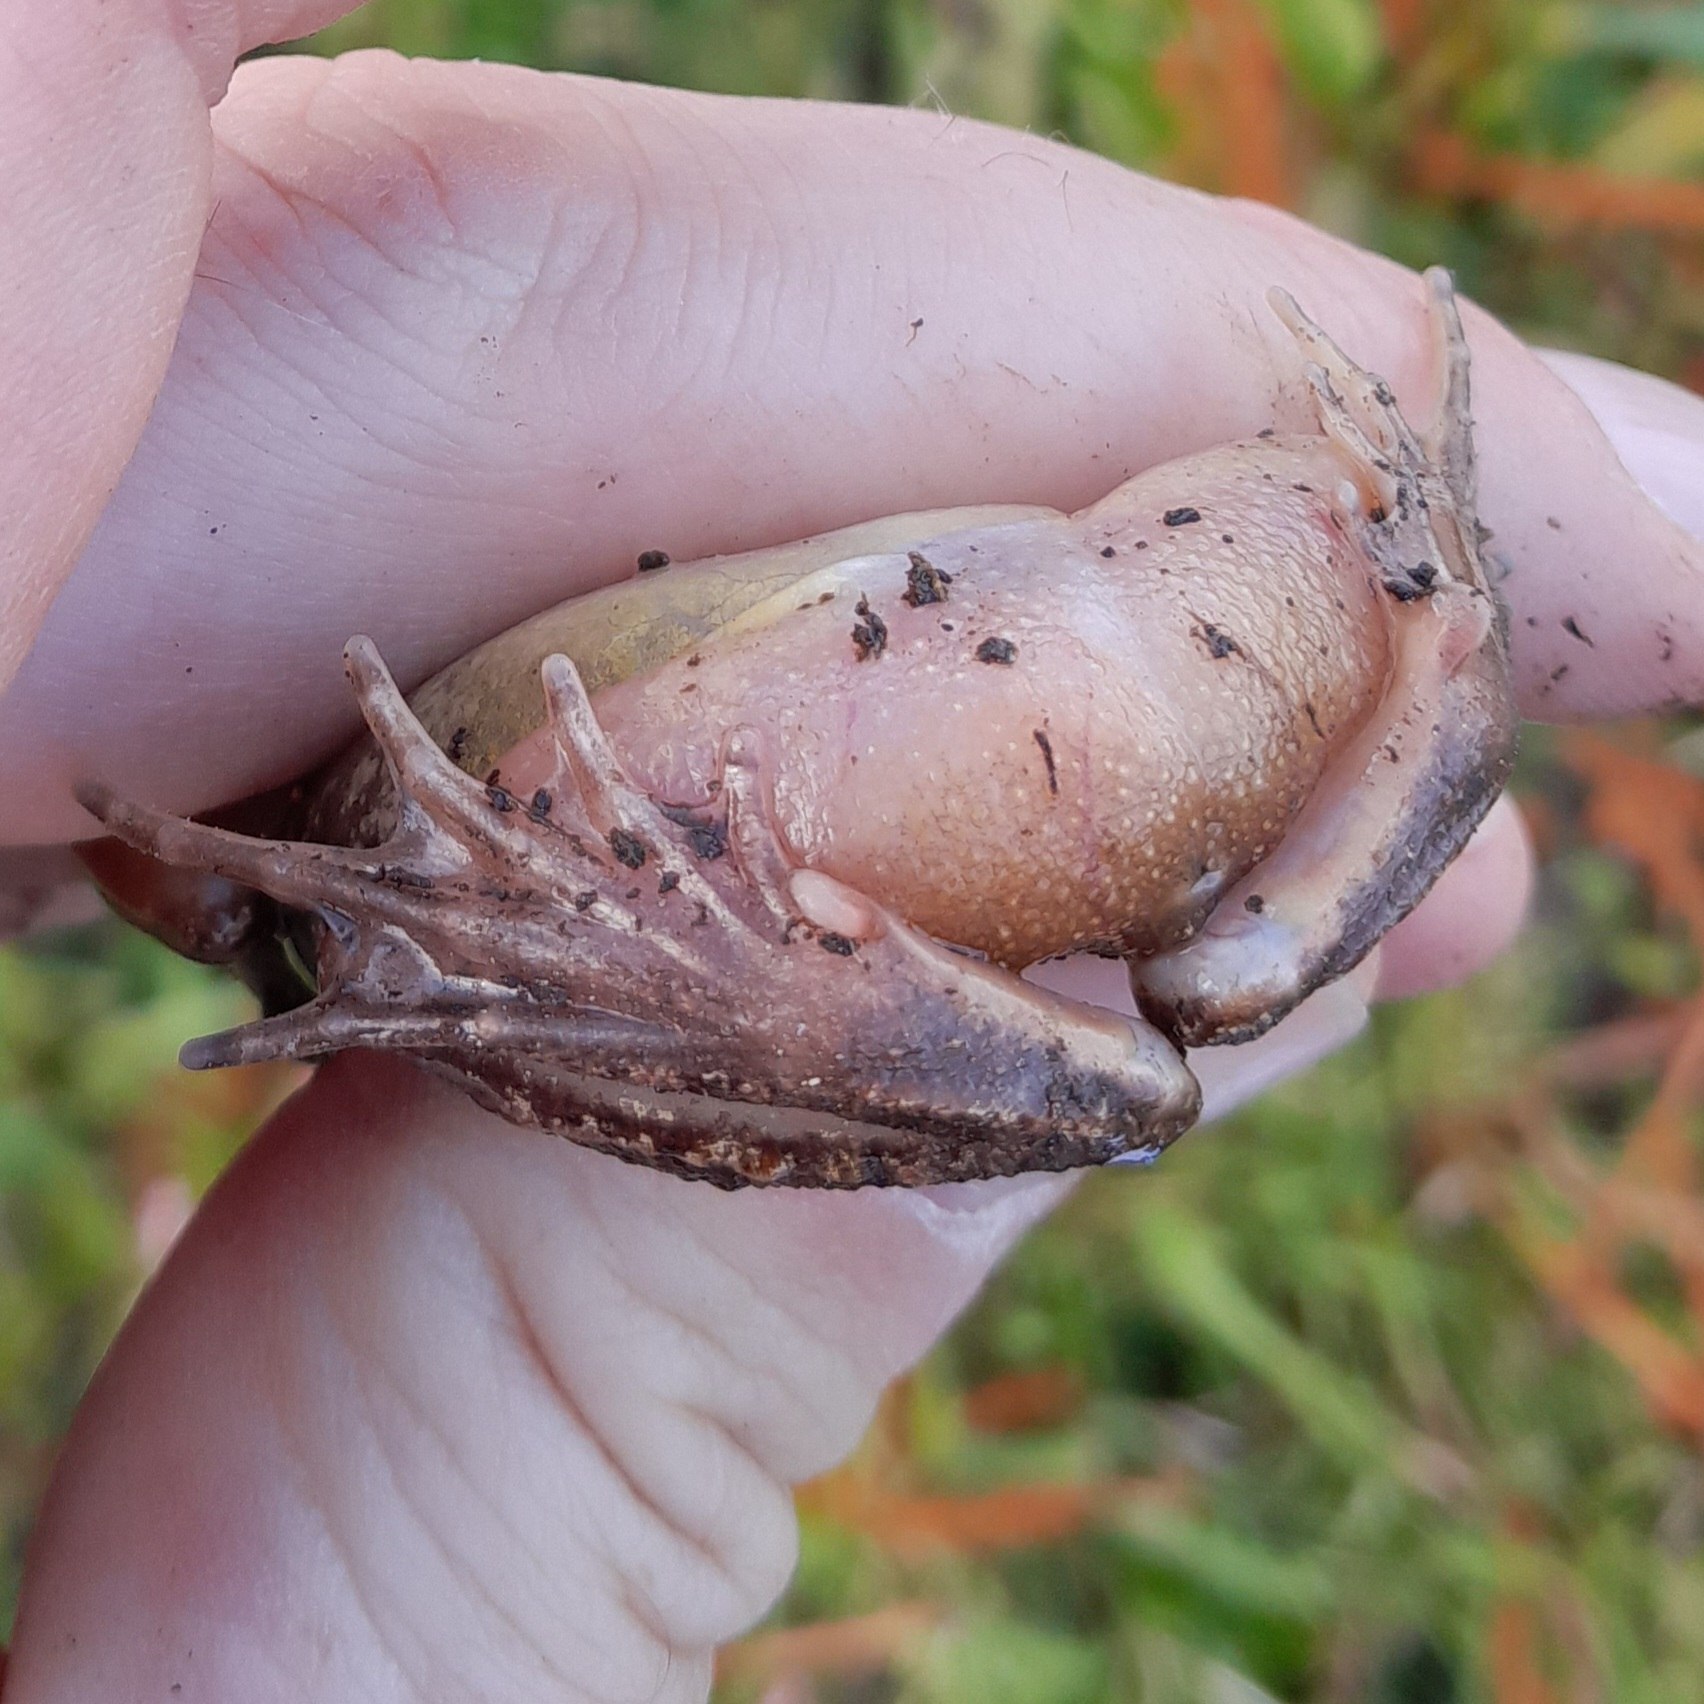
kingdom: Animalia
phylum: Chordata
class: Amphibia
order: Anura
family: Ranidae
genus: Rana
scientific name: Rana arvalis
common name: Spidssnudet frø
